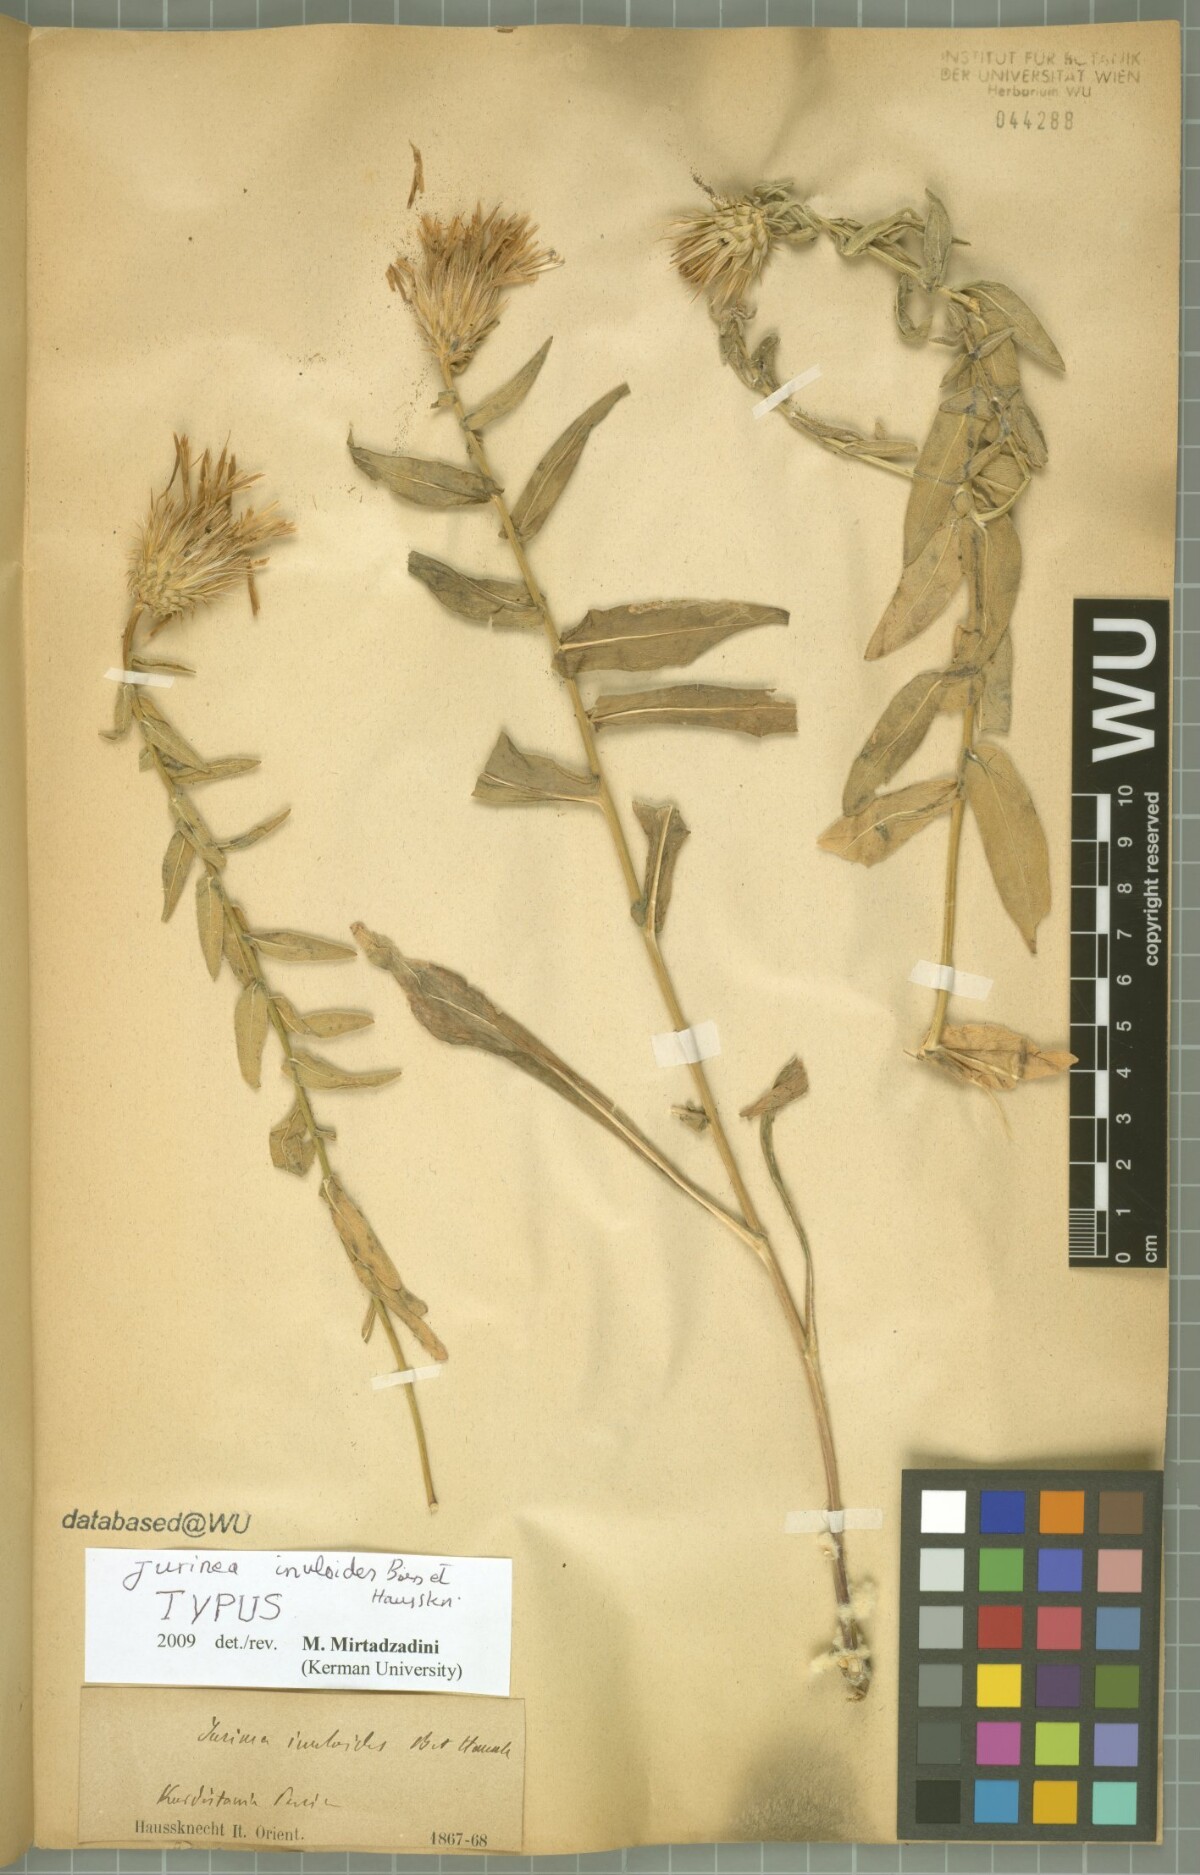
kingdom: Plantae
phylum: Tracheophyta
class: Magnoliopsida
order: Asterales
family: Asteraceae
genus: Jurinea
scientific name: Jurinea inuloides
